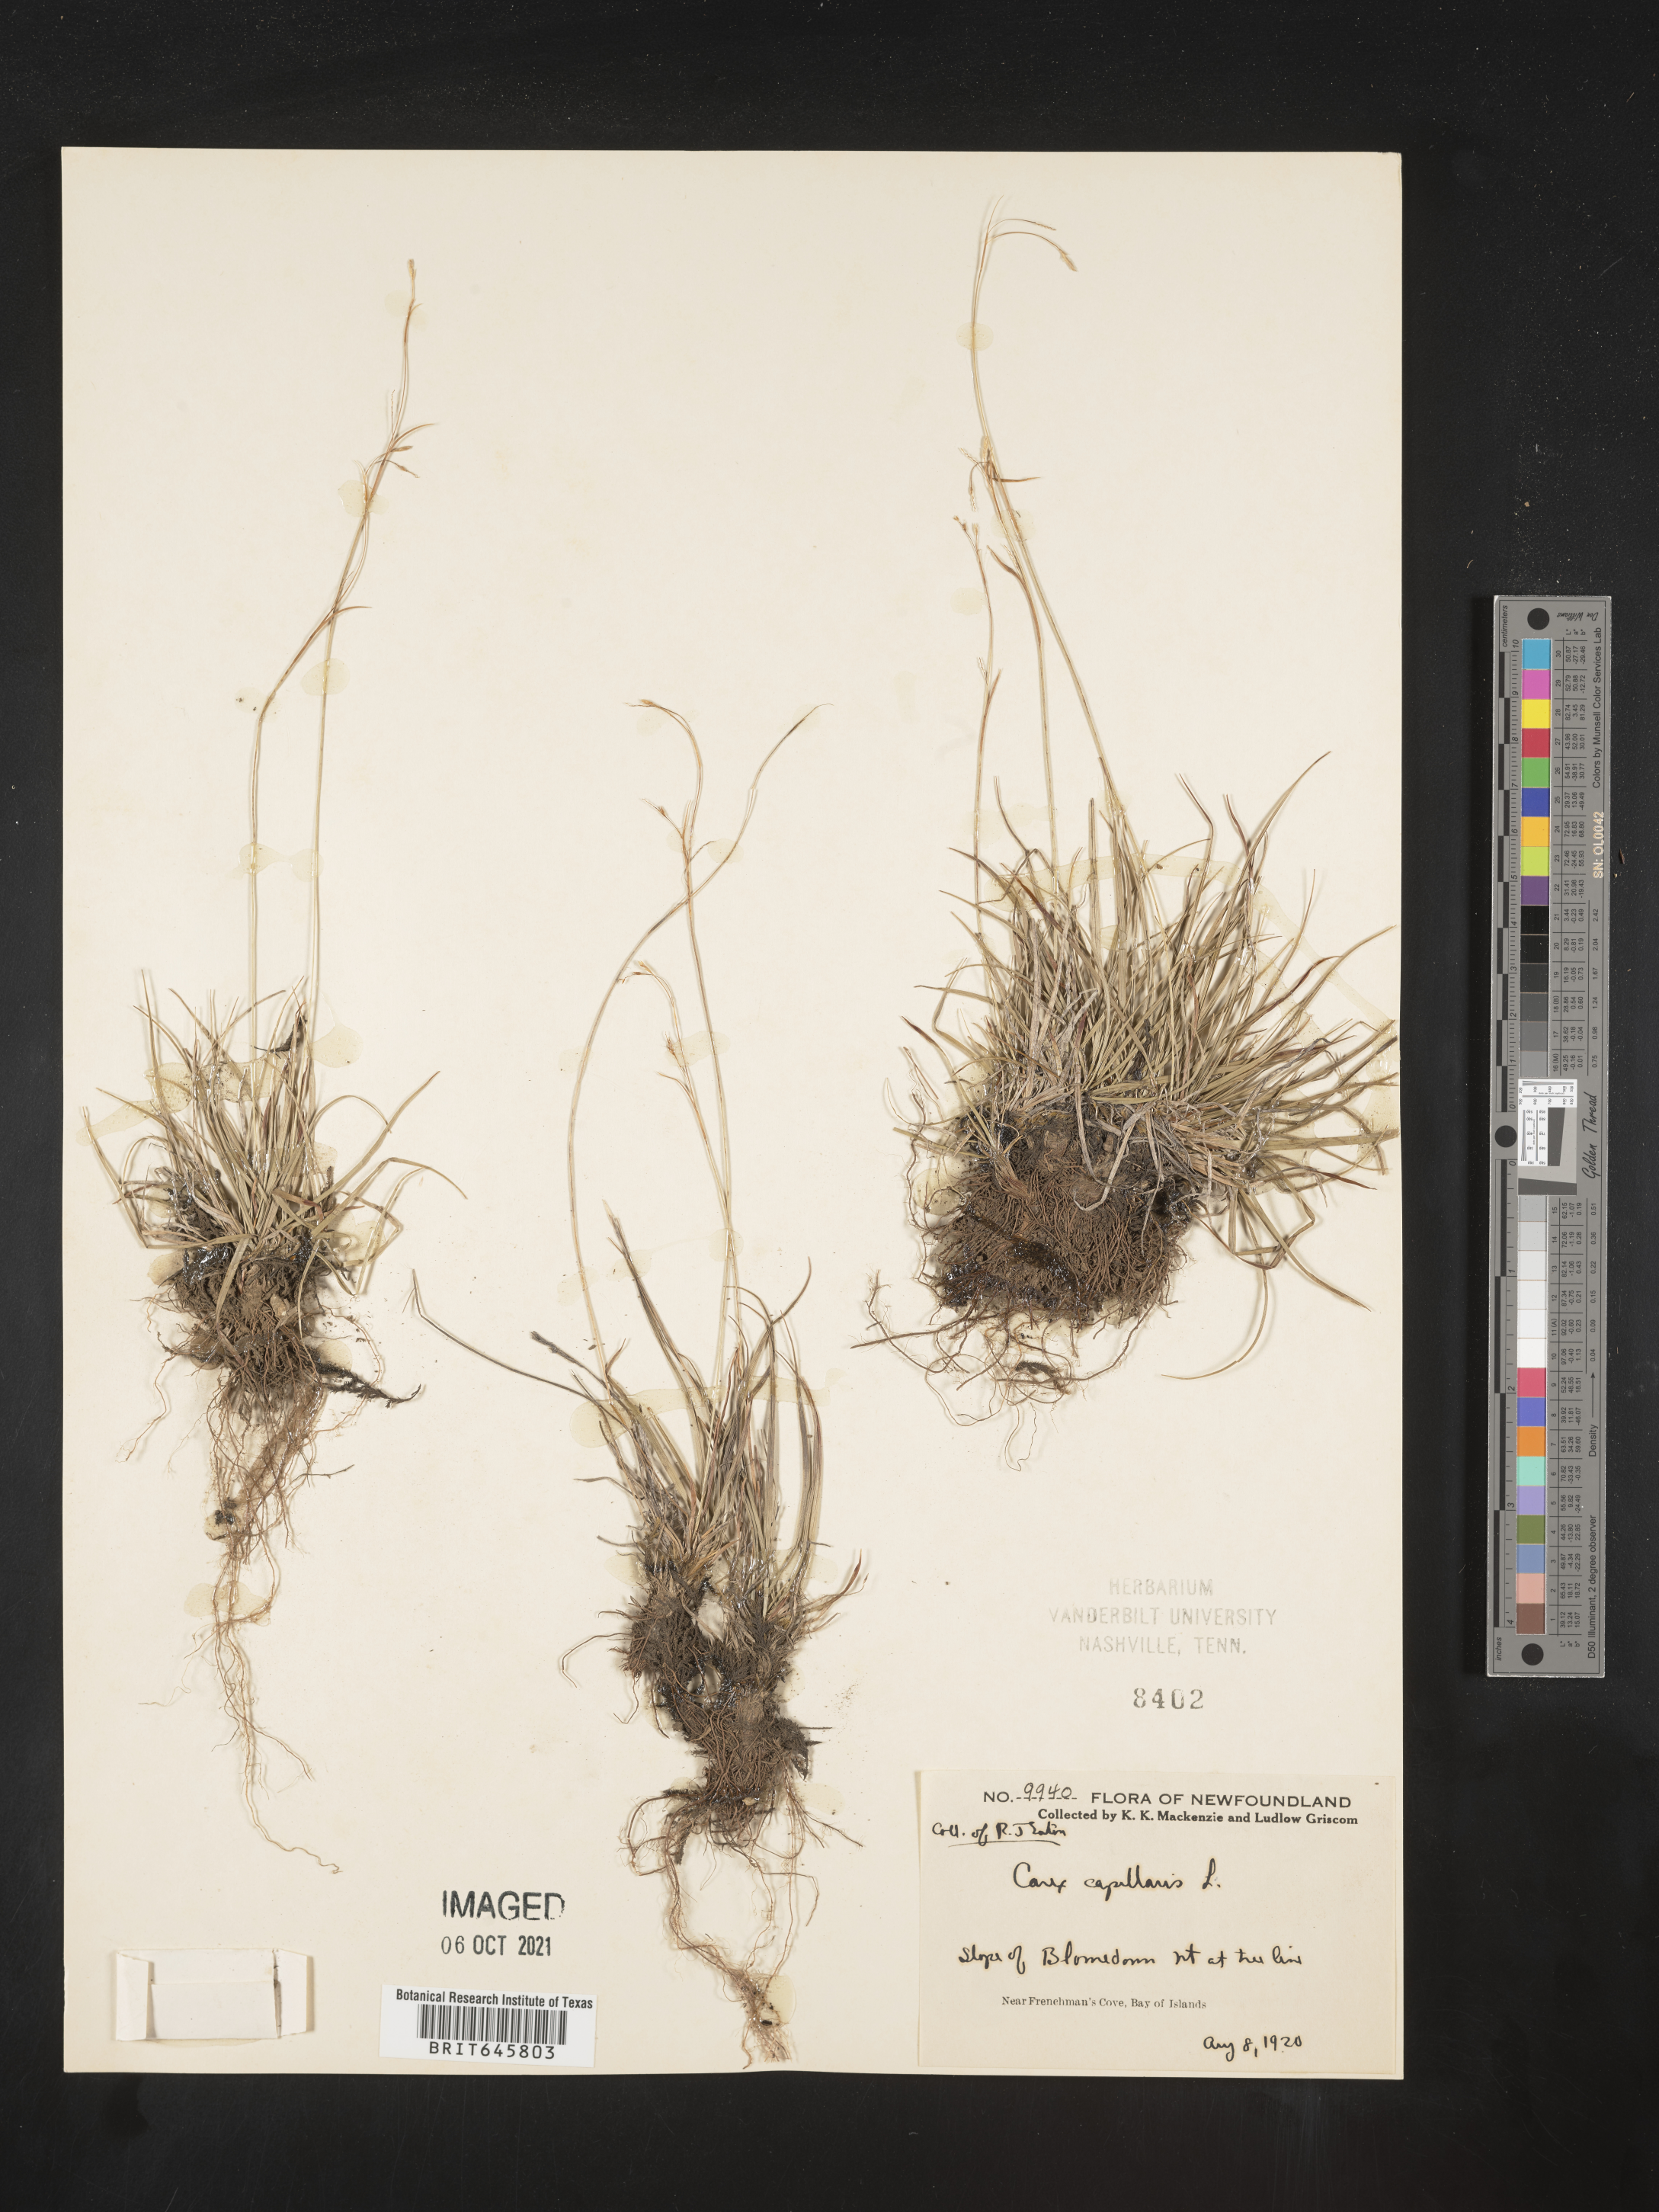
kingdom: Plantae
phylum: Tracheophyta
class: Liliopsida
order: Poales
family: Cyperaceae
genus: Carex
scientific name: Carex capillaris
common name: Hair sedge
